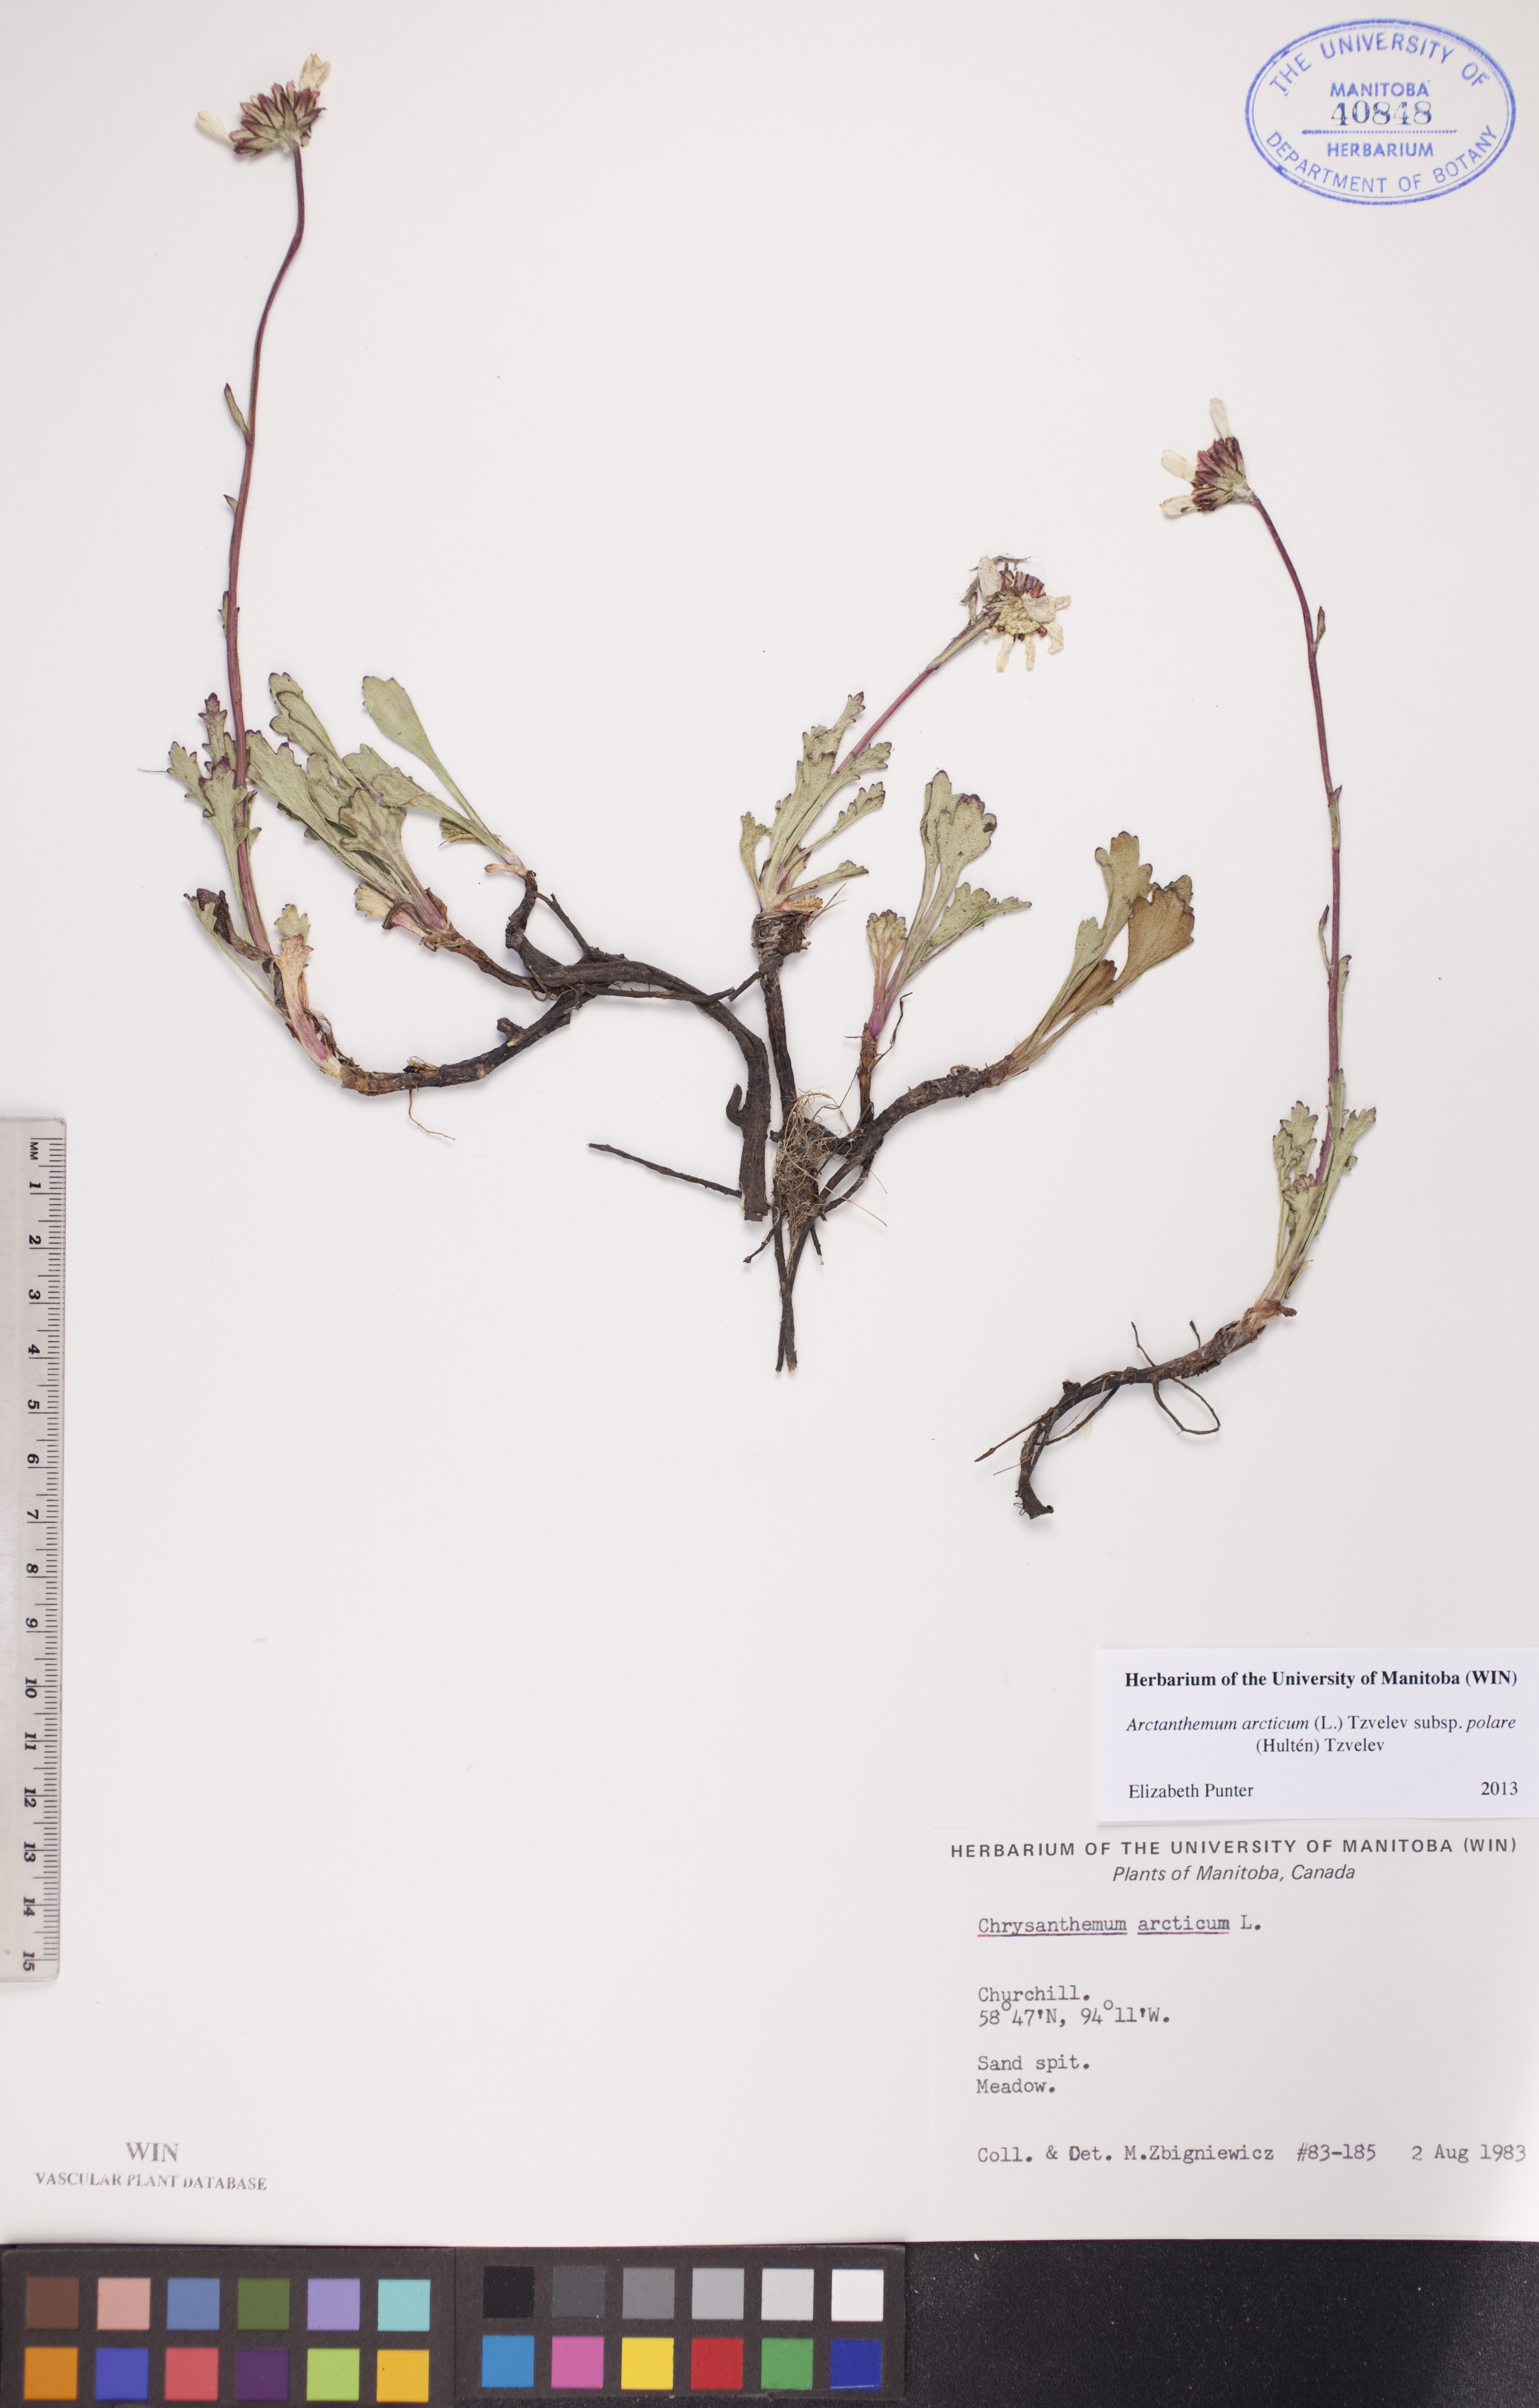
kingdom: Plantae
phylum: Tracheophyta
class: Magnoliopsida
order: Asterales
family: Asteraceae
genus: Arctanthemum
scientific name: Arctanthemum arcticum
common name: Arctic daisy
